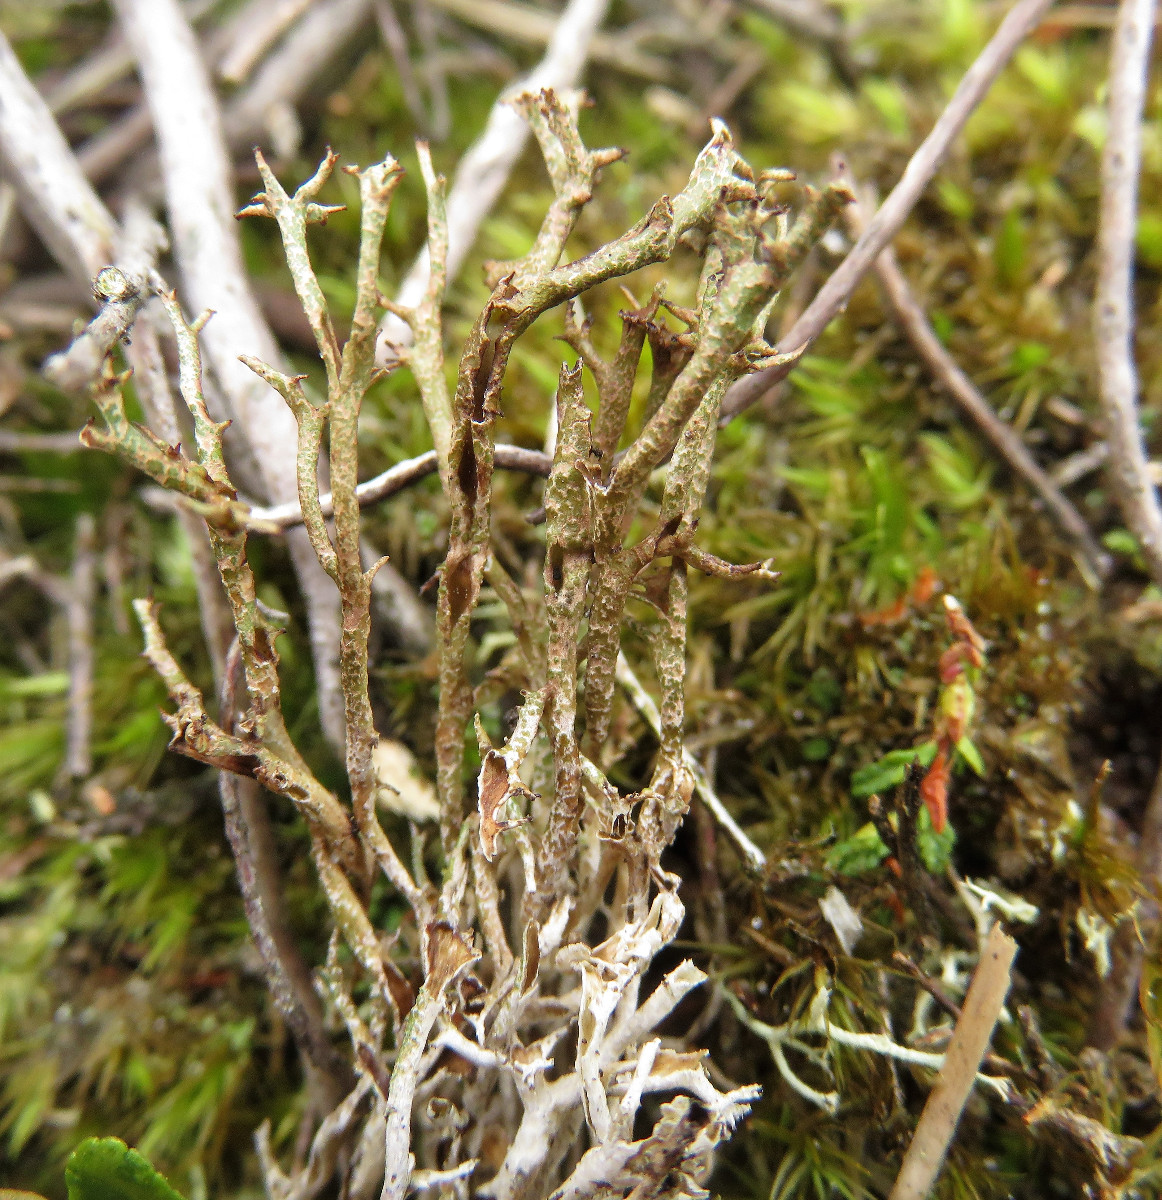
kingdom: Fungi
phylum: Ascomycota
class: Lecanoromycetes
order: Lecanorales
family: Cladoniaceae
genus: Cladonia
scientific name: Cladonia crispata
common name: takket bægerlav
